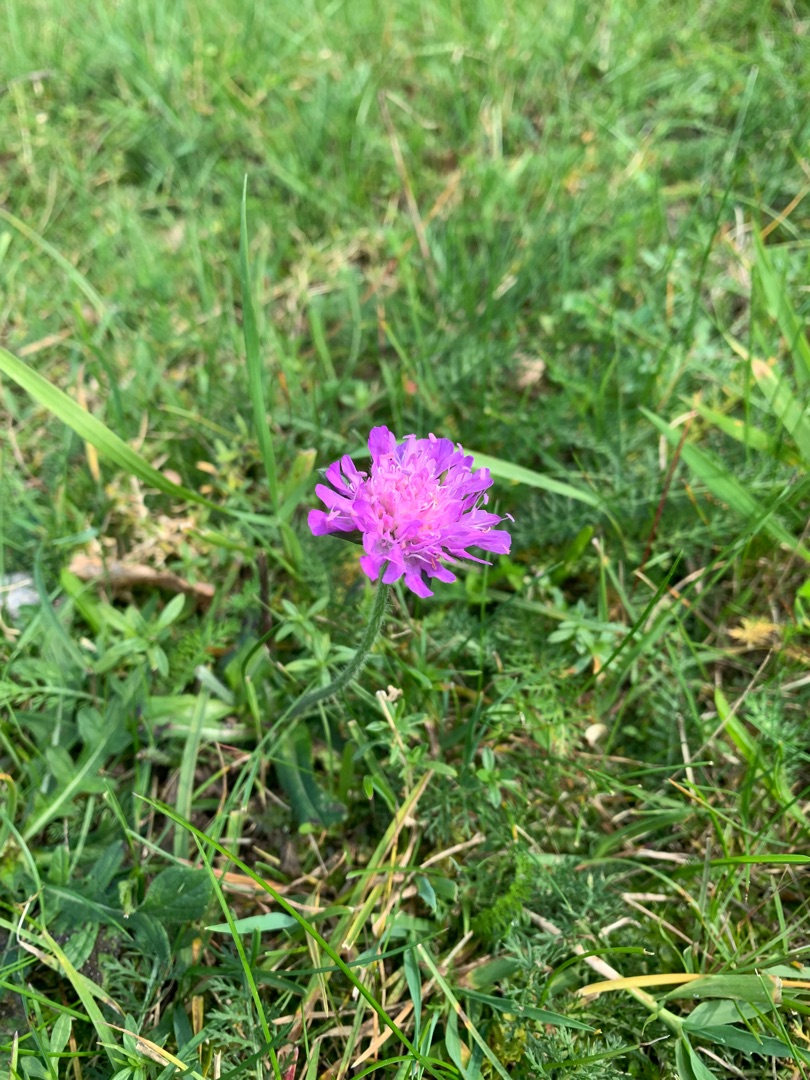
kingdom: Plantae
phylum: Tracheophyta
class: Magnoliopsida
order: Dipsacales
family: Caprifoliaceae
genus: Knautia
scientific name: Knautia arvensis
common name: Blåhat
